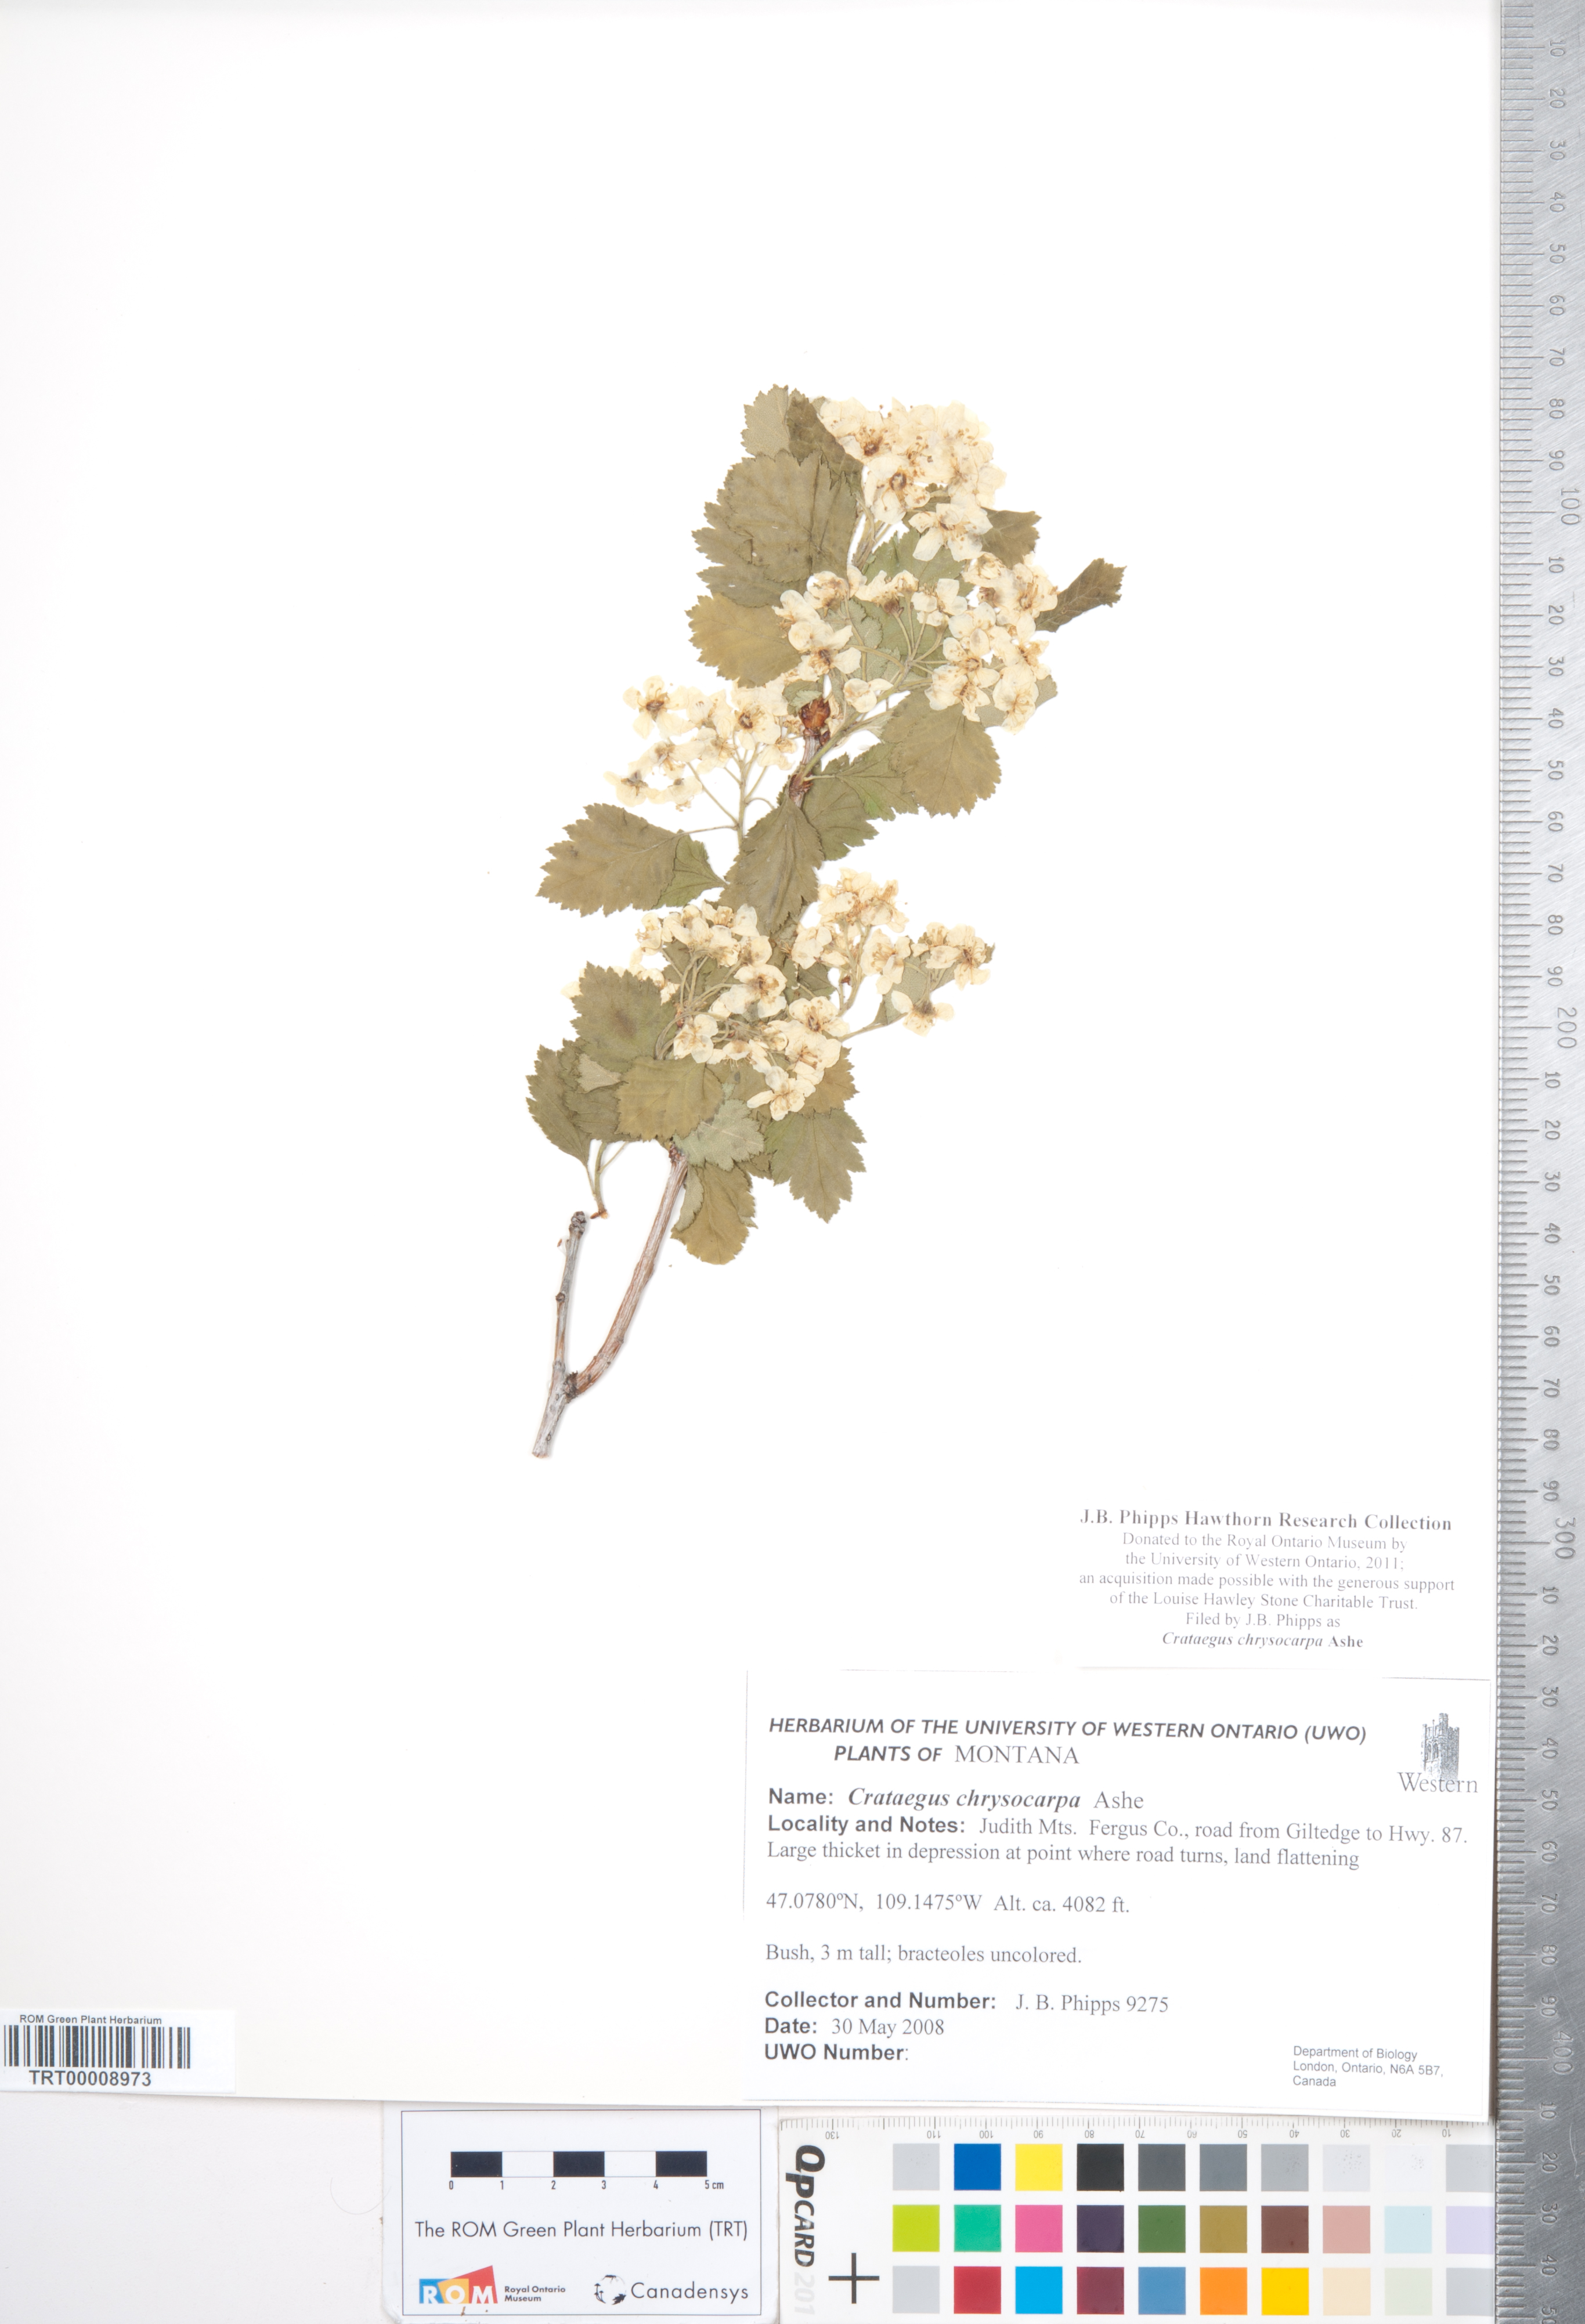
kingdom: Plantae
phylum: Tracheophyta
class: Magnoliopsida
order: Rosales
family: Rosaceae
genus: Crataegus
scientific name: Crataegus chrysocarpa
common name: Fire-berry hawthorn
